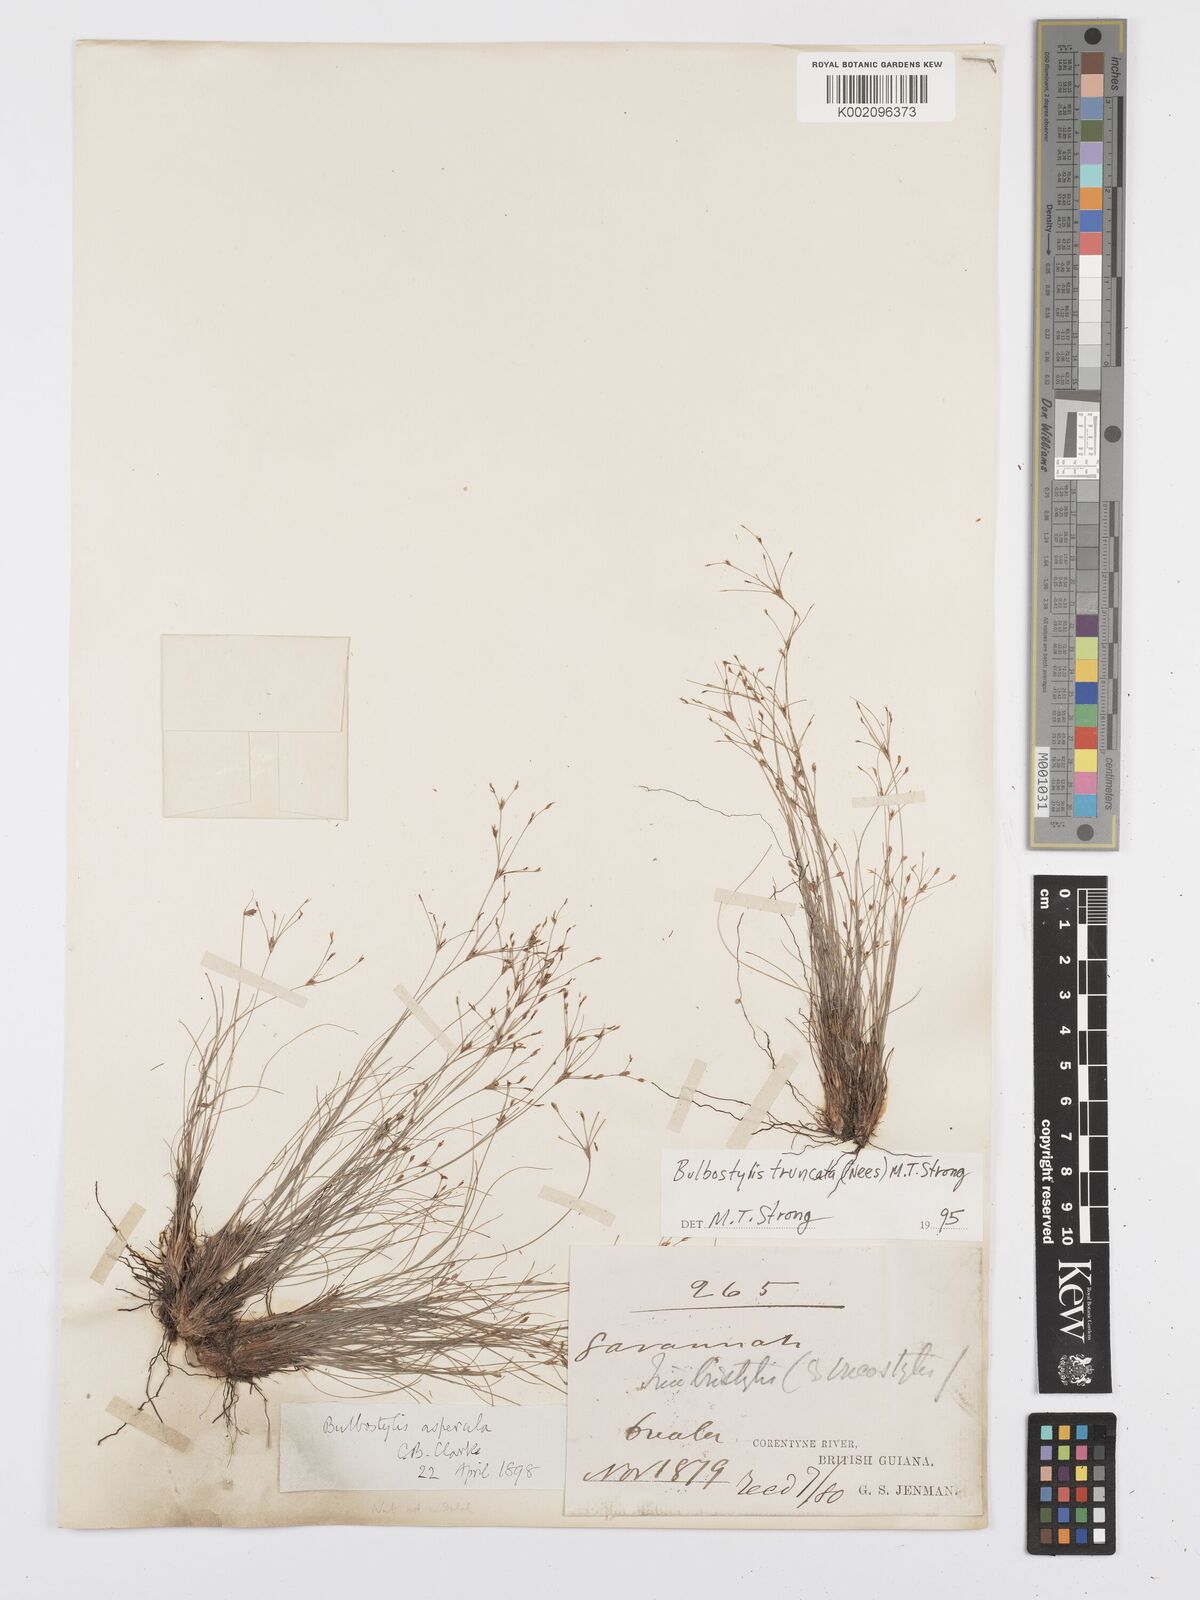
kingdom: Plantae
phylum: Tracheophyta
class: Liliopsida
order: Poales
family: Cyperaceae
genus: Bulbostylis
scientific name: Bulbostylis truncata
